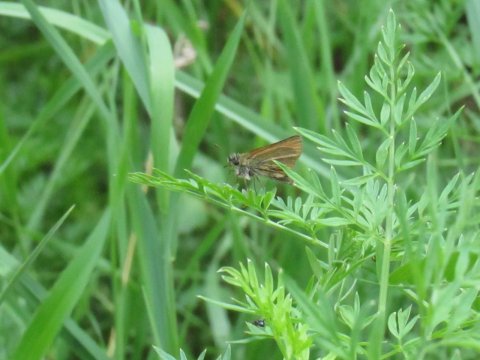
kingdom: Animalia
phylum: Arthropoda
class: Insecta
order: Lepidoptera
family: Hesperiidae
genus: Thymelicus
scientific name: Thymelicus lineola
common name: European Skipper
